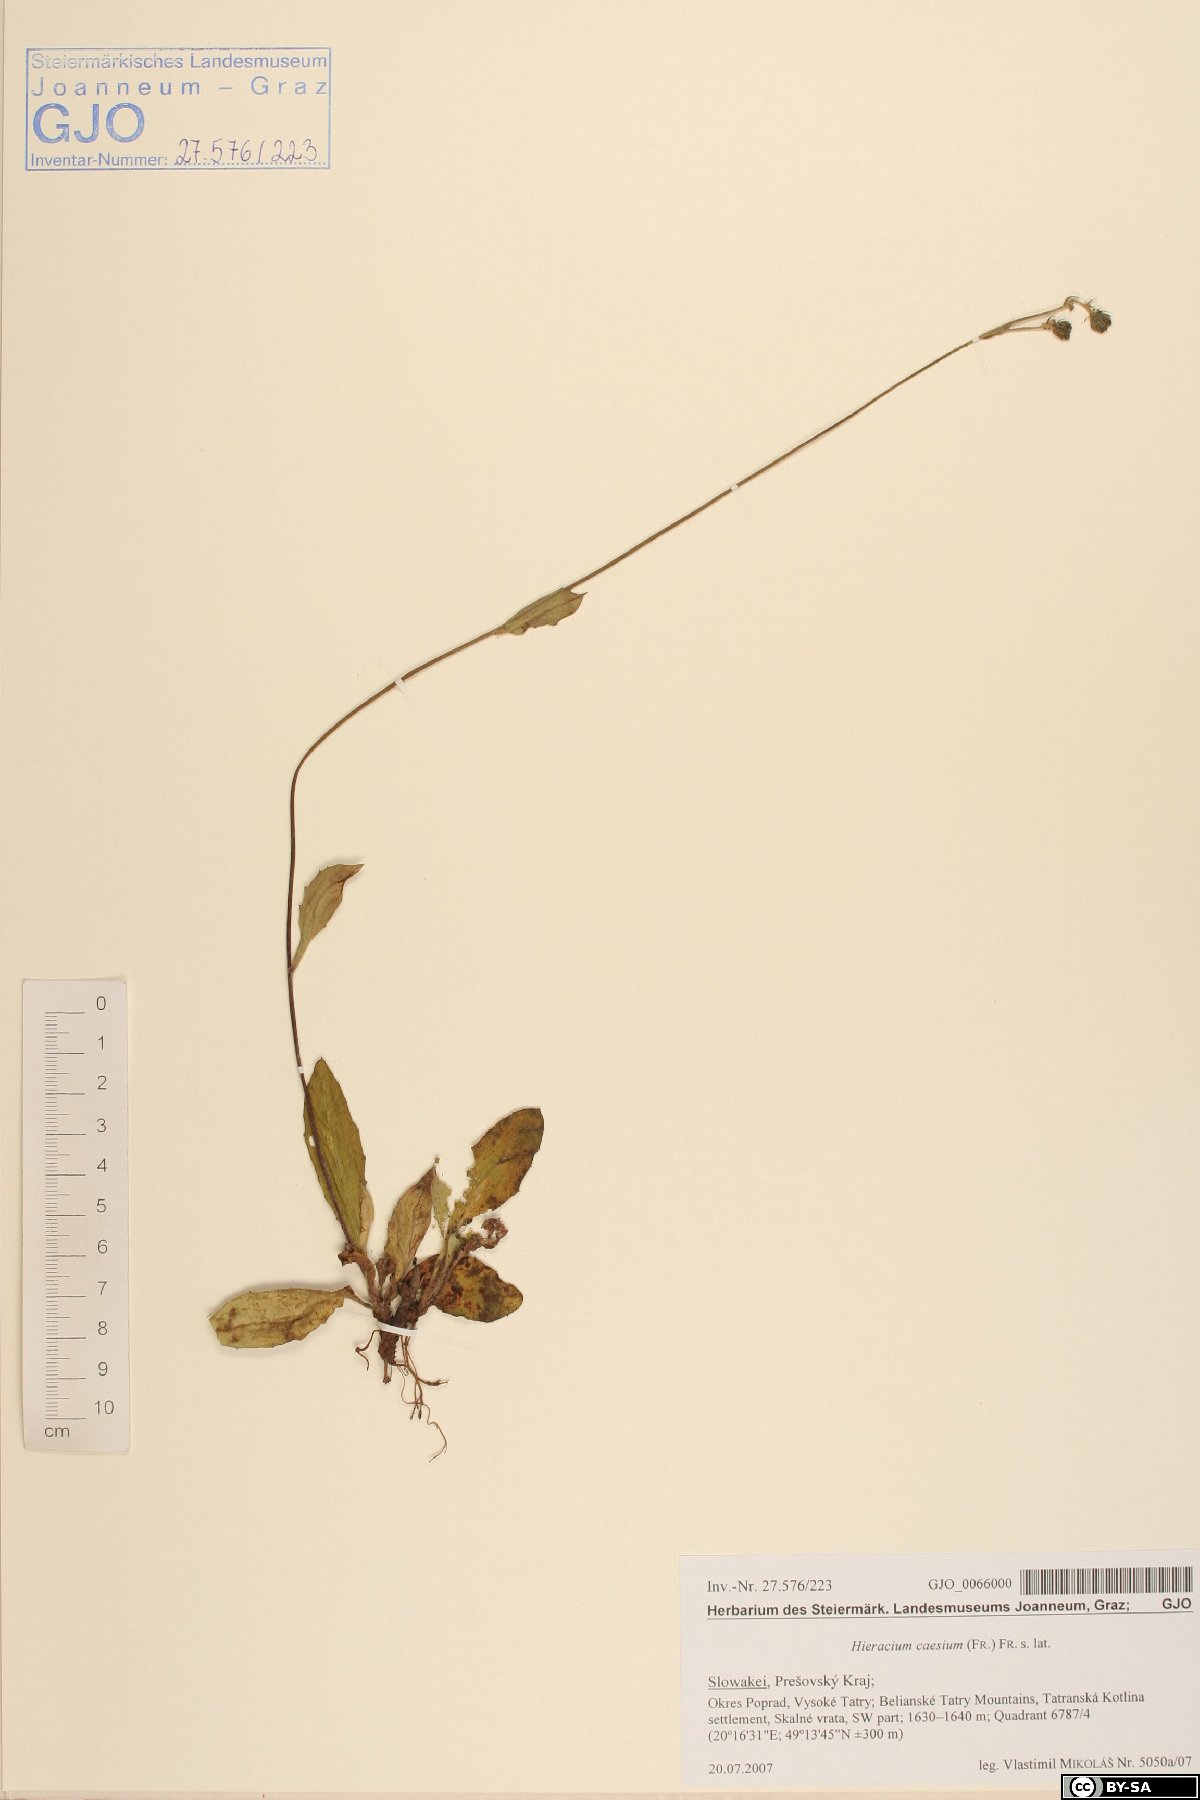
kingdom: Plantae
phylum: Tracheophyta
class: Magnoliopsida
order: Asterales
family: Asteraceae
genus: Hieracium
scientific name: Hieracium caesium
